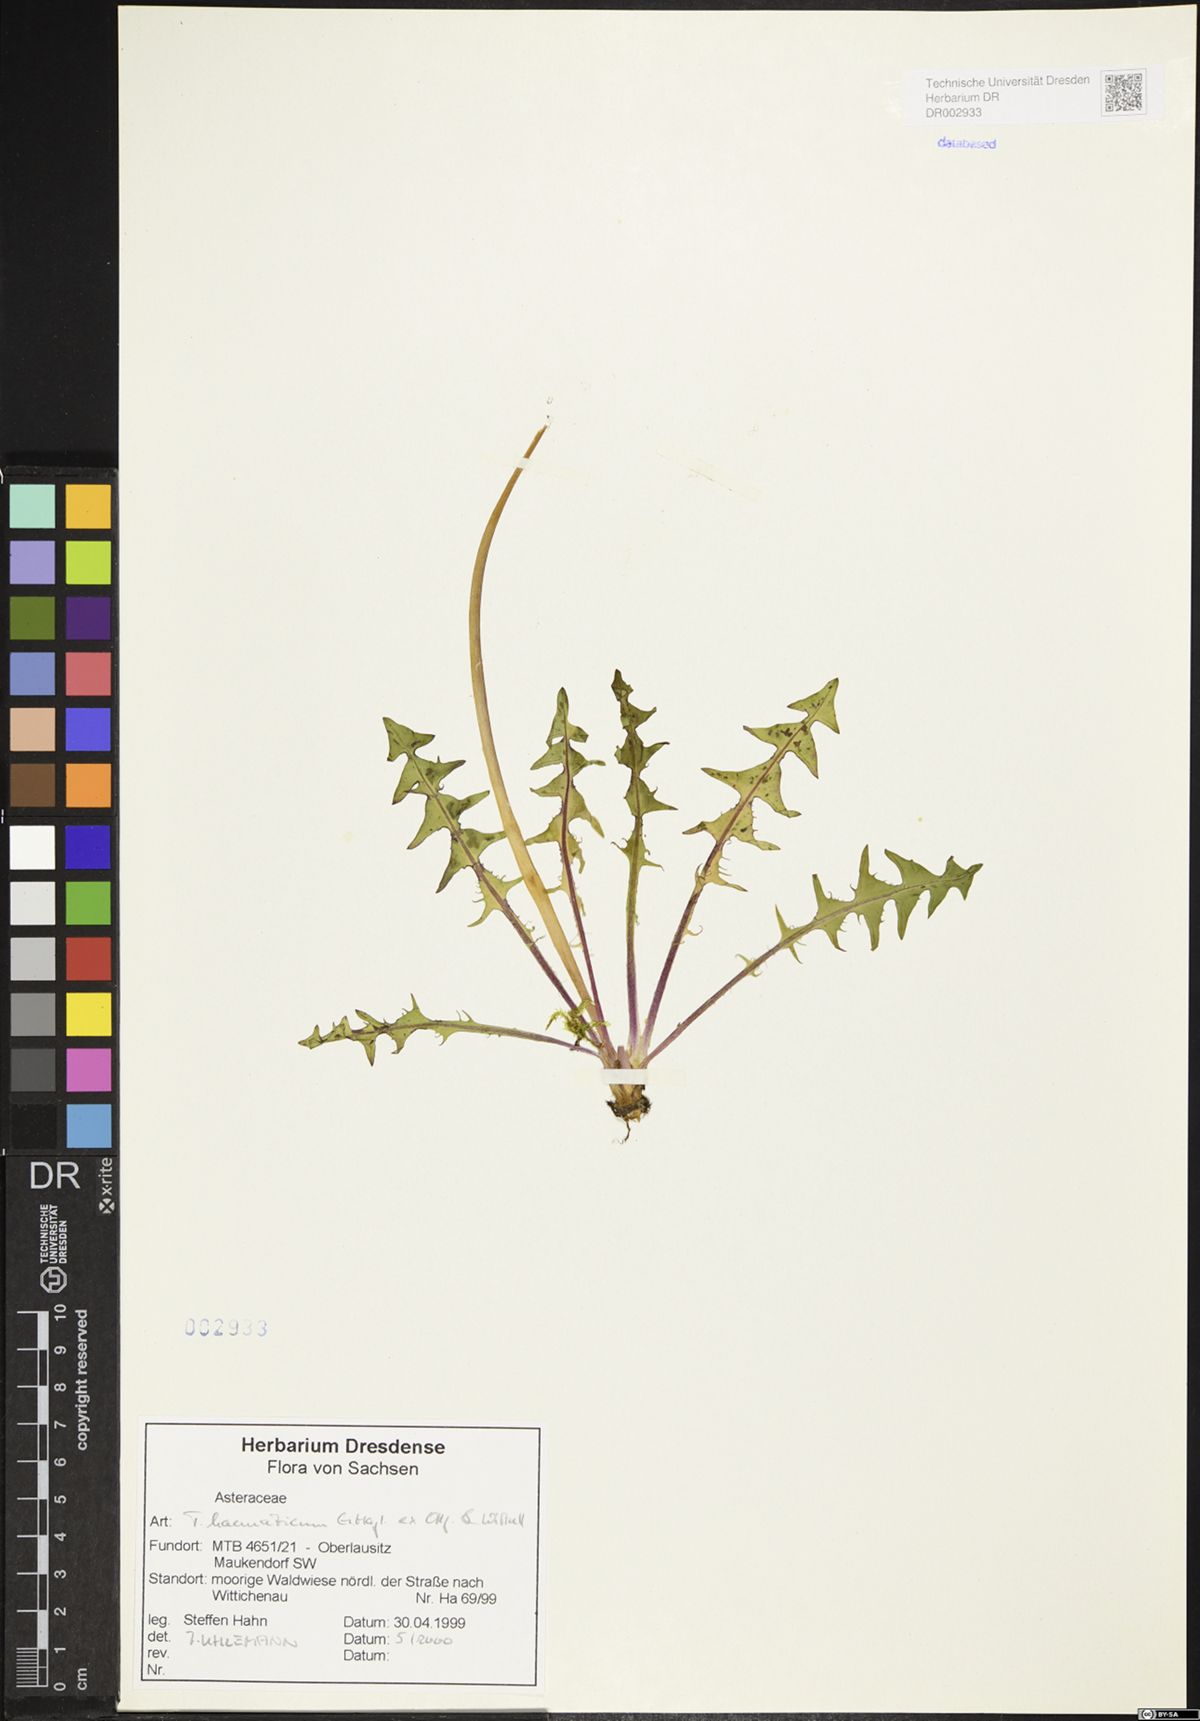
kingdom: Plantae
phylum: Tracheophyta
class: Magnoliopsida
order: Asterales
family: Asteraceae
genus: Taraxacum
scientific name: Taraxacum haematicum
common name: Blood-red dandelion
